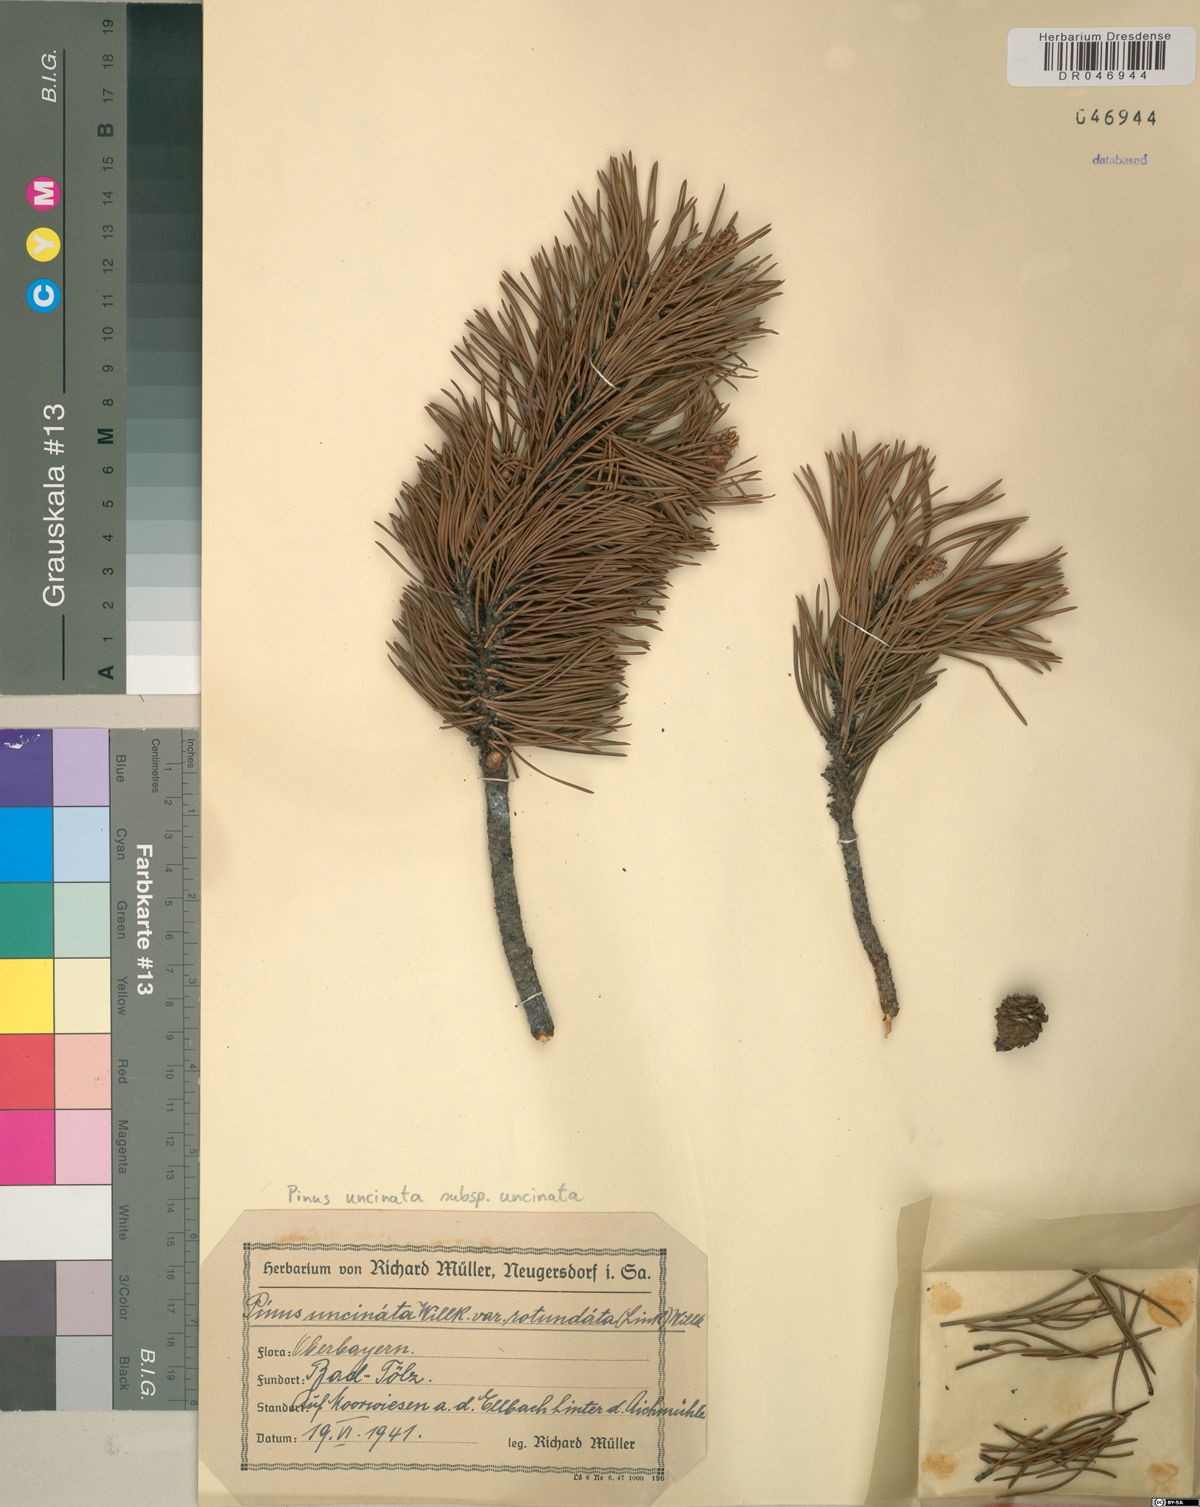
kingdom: Plantae
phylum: Tracheophyta
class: Pinopsida
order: Pinales
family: Pinaceae
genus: Pinus
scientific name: Pinus uncinata
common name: Mountain pine
